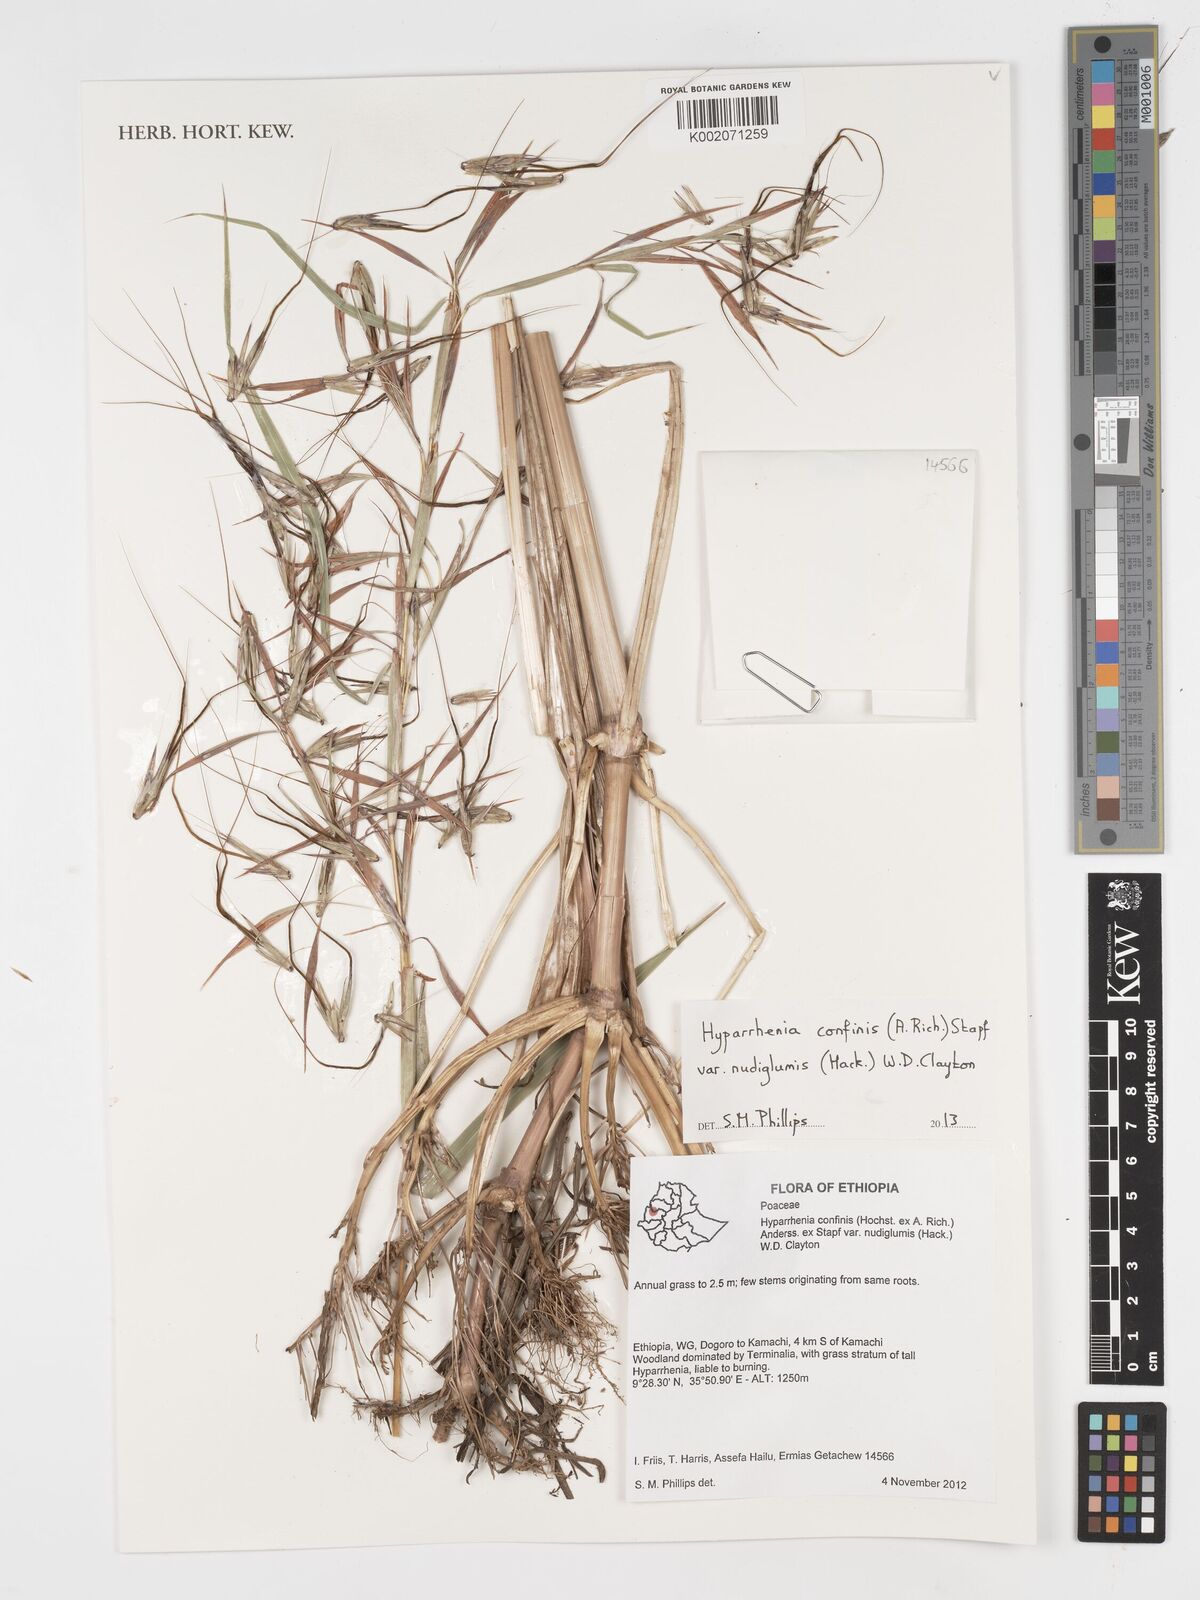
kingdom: Plantae
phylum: Tracheophyta
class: Liliopsida
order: Poales
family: Poaceae
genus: Hyparrhenia
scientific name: Hyparrhenia confinis
